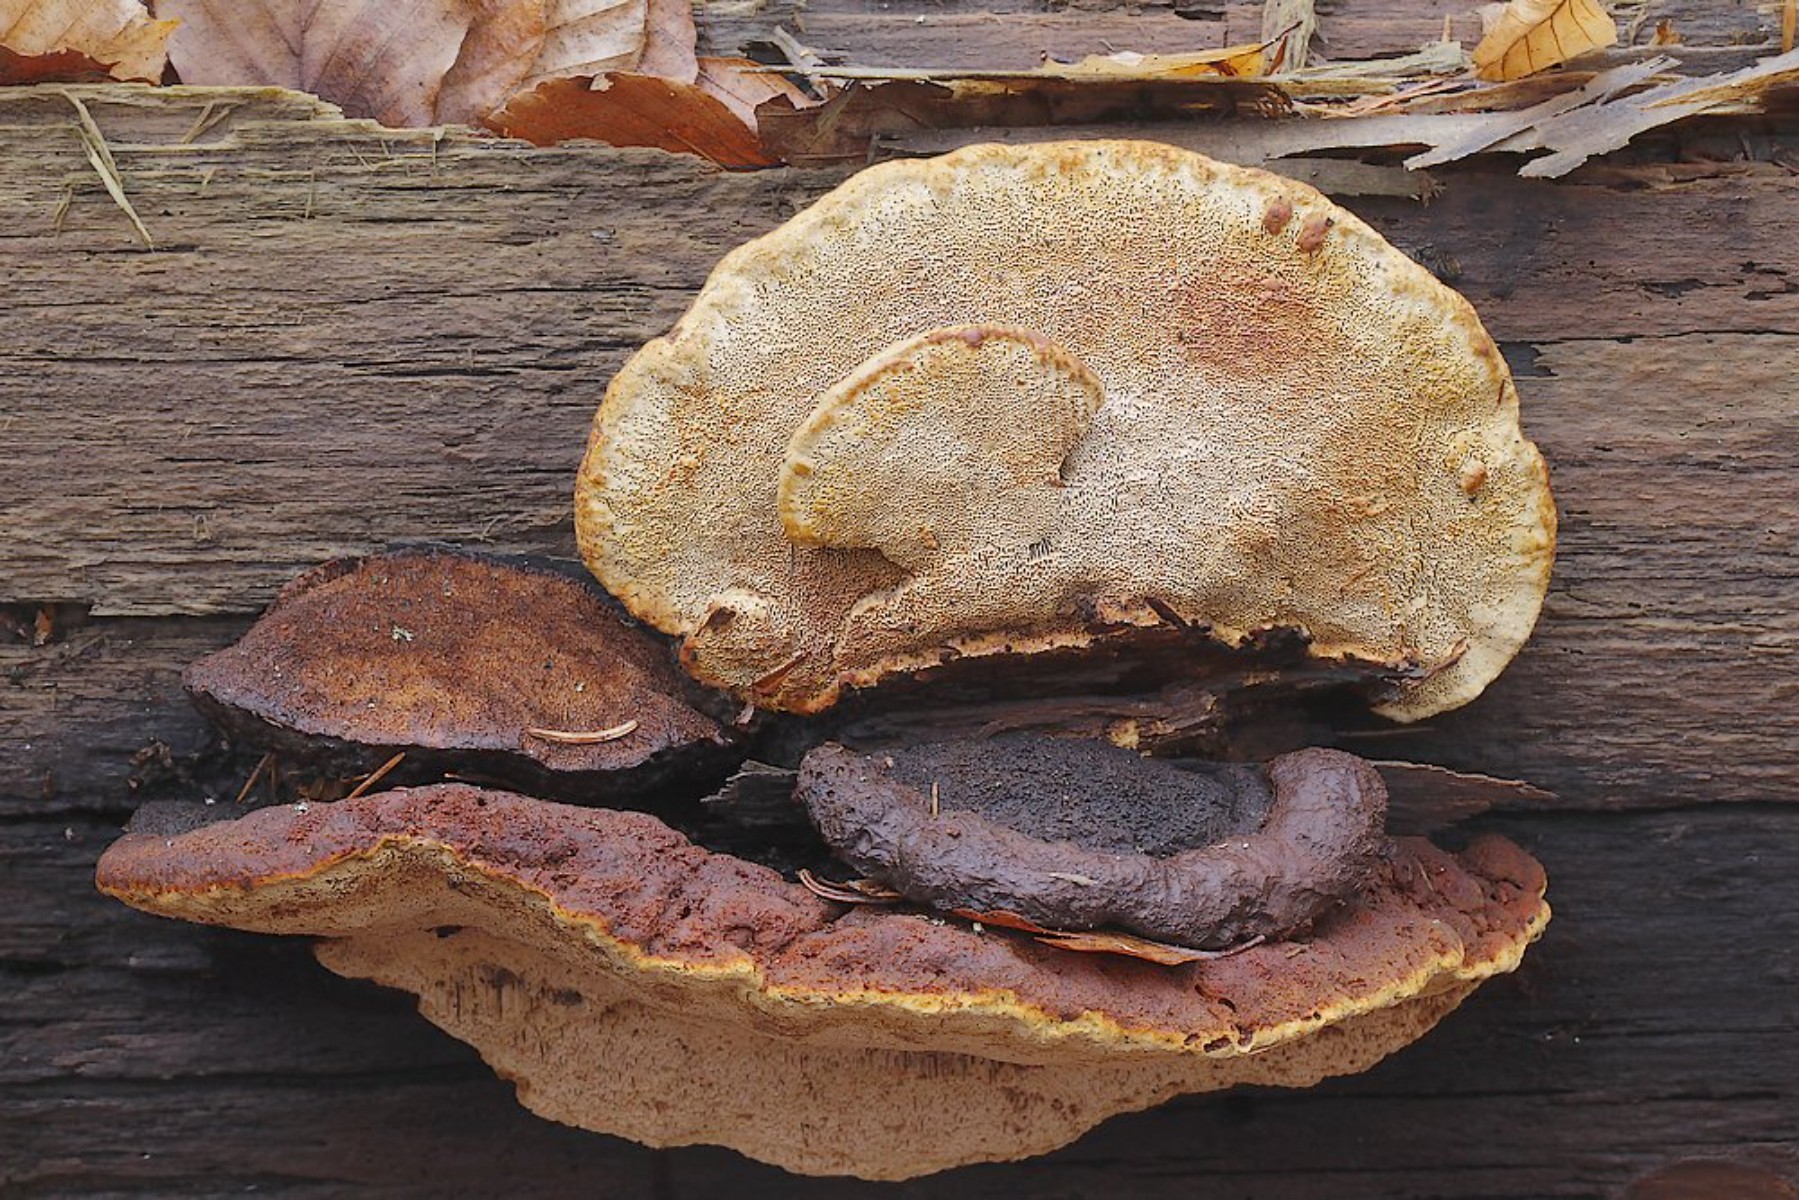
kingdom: Fungi
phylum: Basidiomycota
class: Agaricomycetes
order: Gloeophyllales
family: Gloeophyllaceae
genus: Gloeophyllum
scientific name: Gloeophyllum odoratum
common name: duftende korkhat
